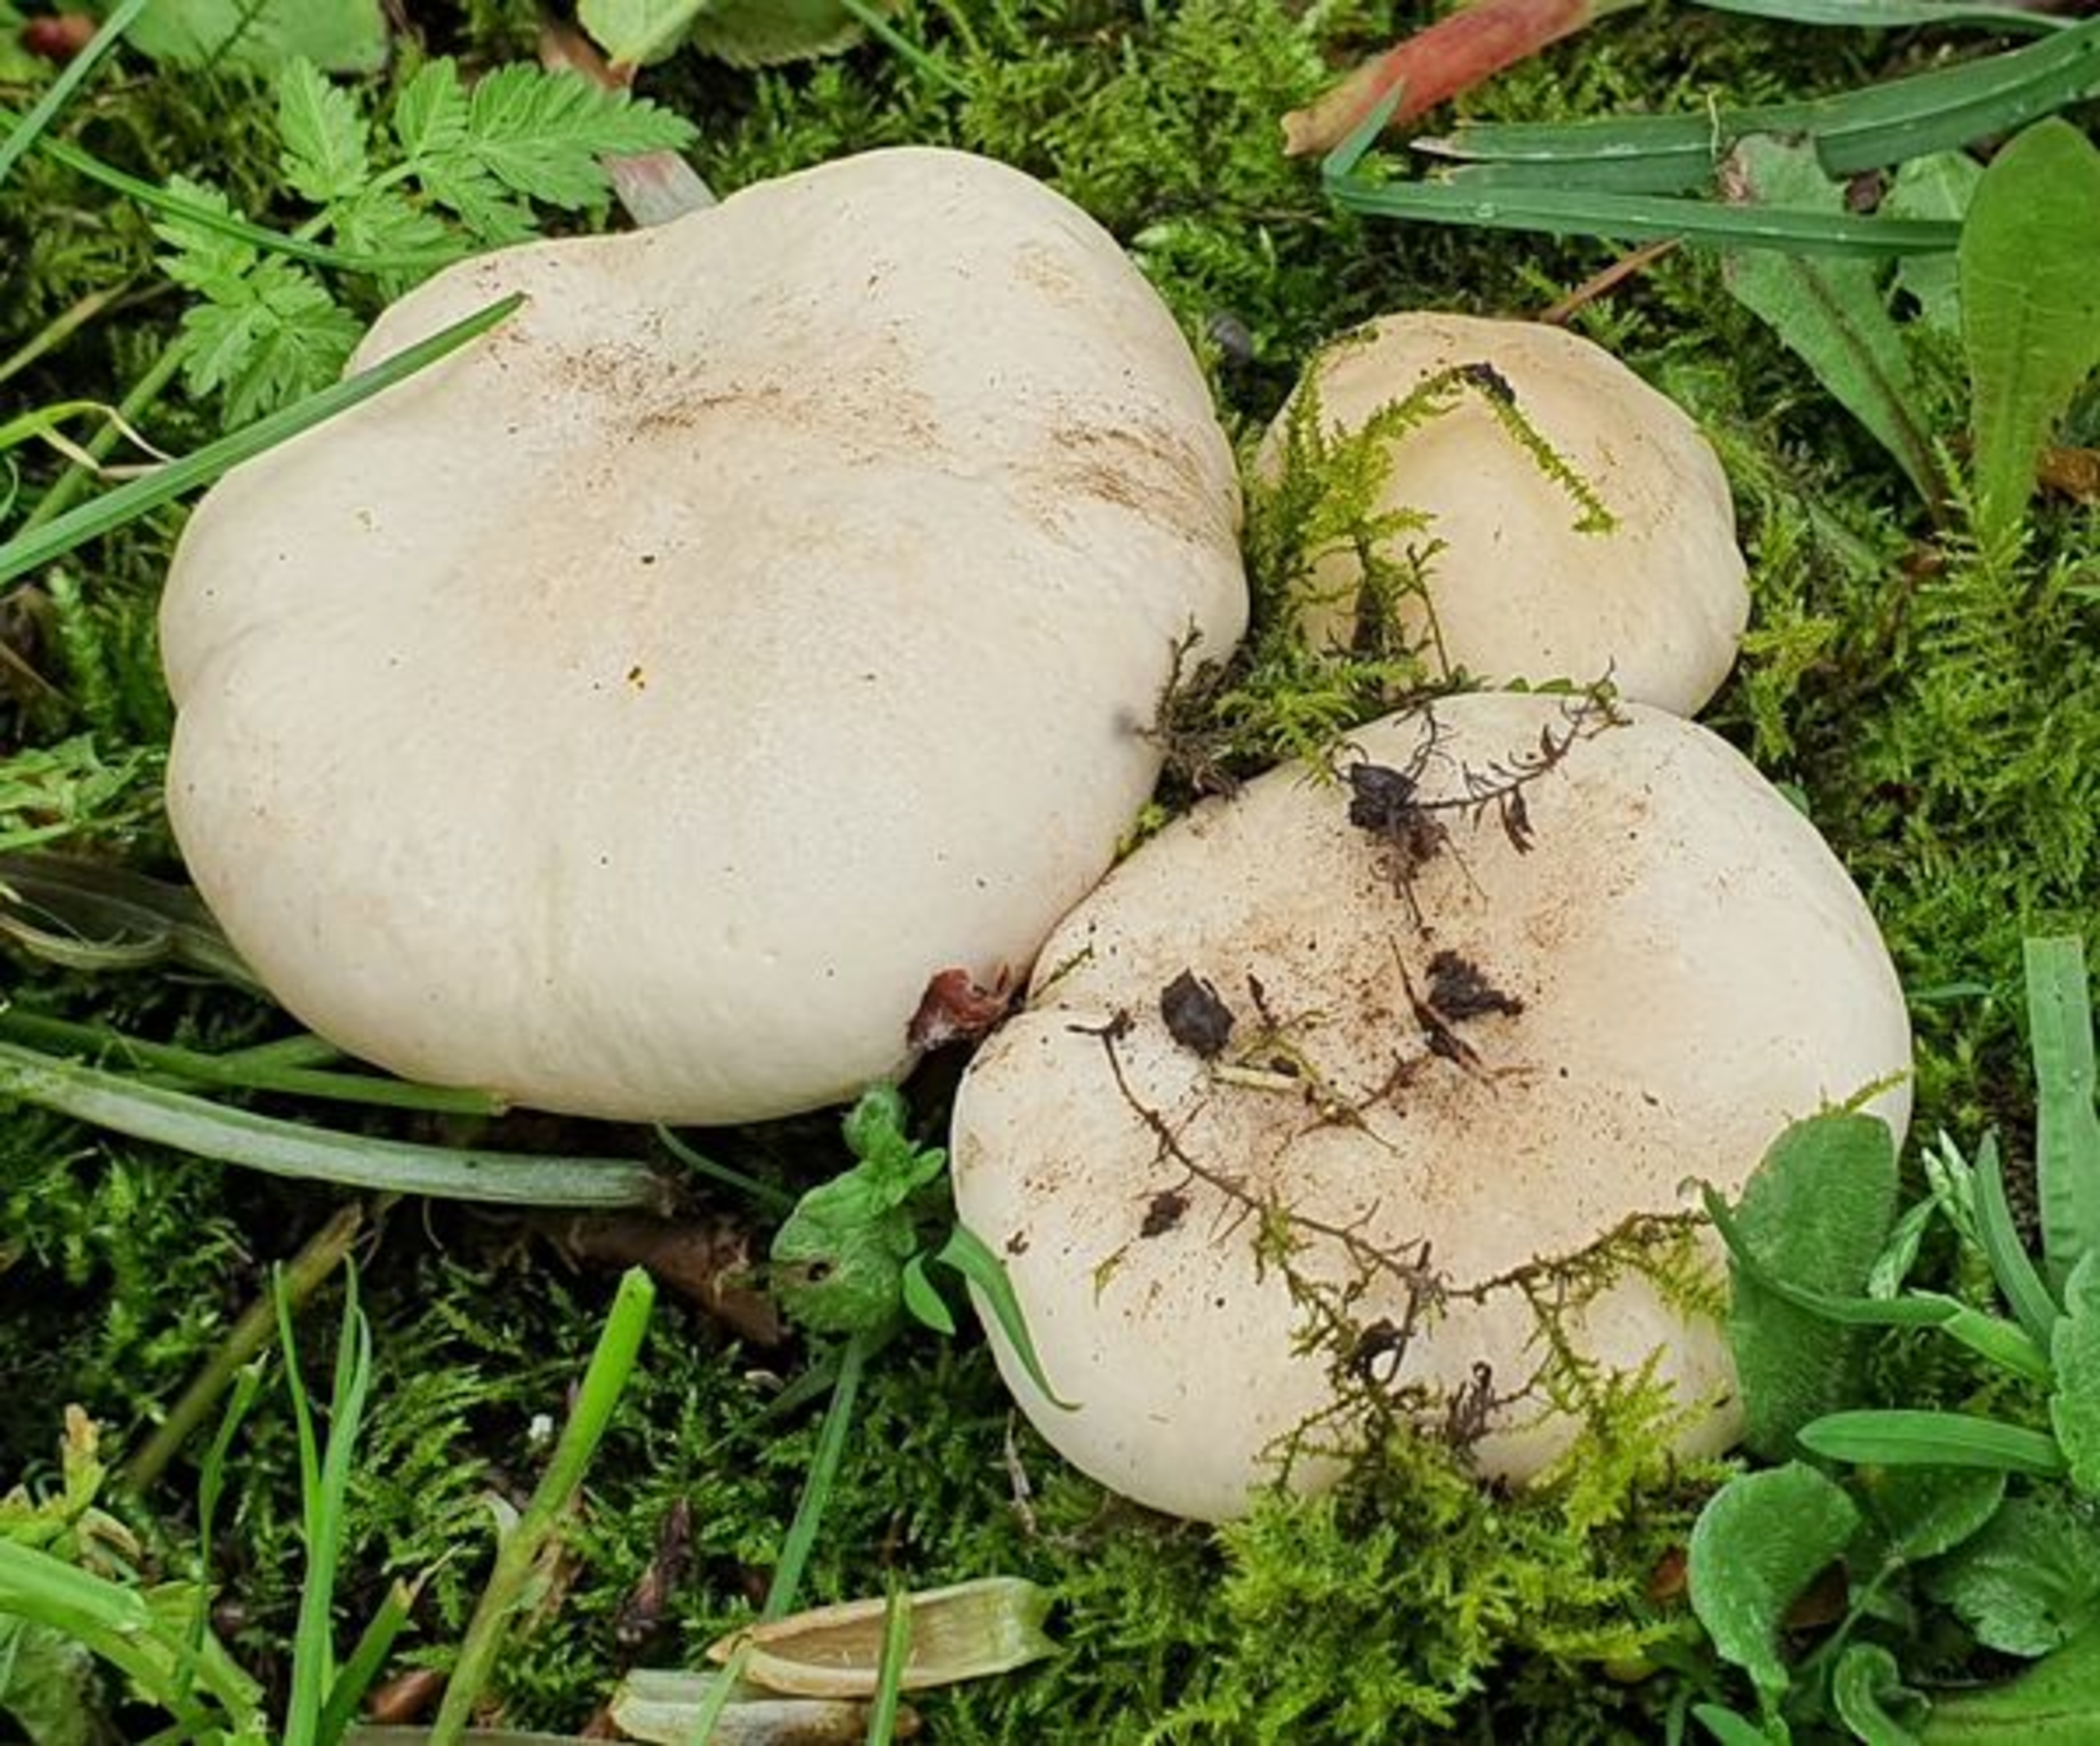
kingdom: Fungi
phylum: Basidiomycota
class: Agaricomycetes
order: Agaricales
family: Lyophyllaceae
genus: Calocybe
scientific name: Calocybe gambosa
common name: Vårmusseron
